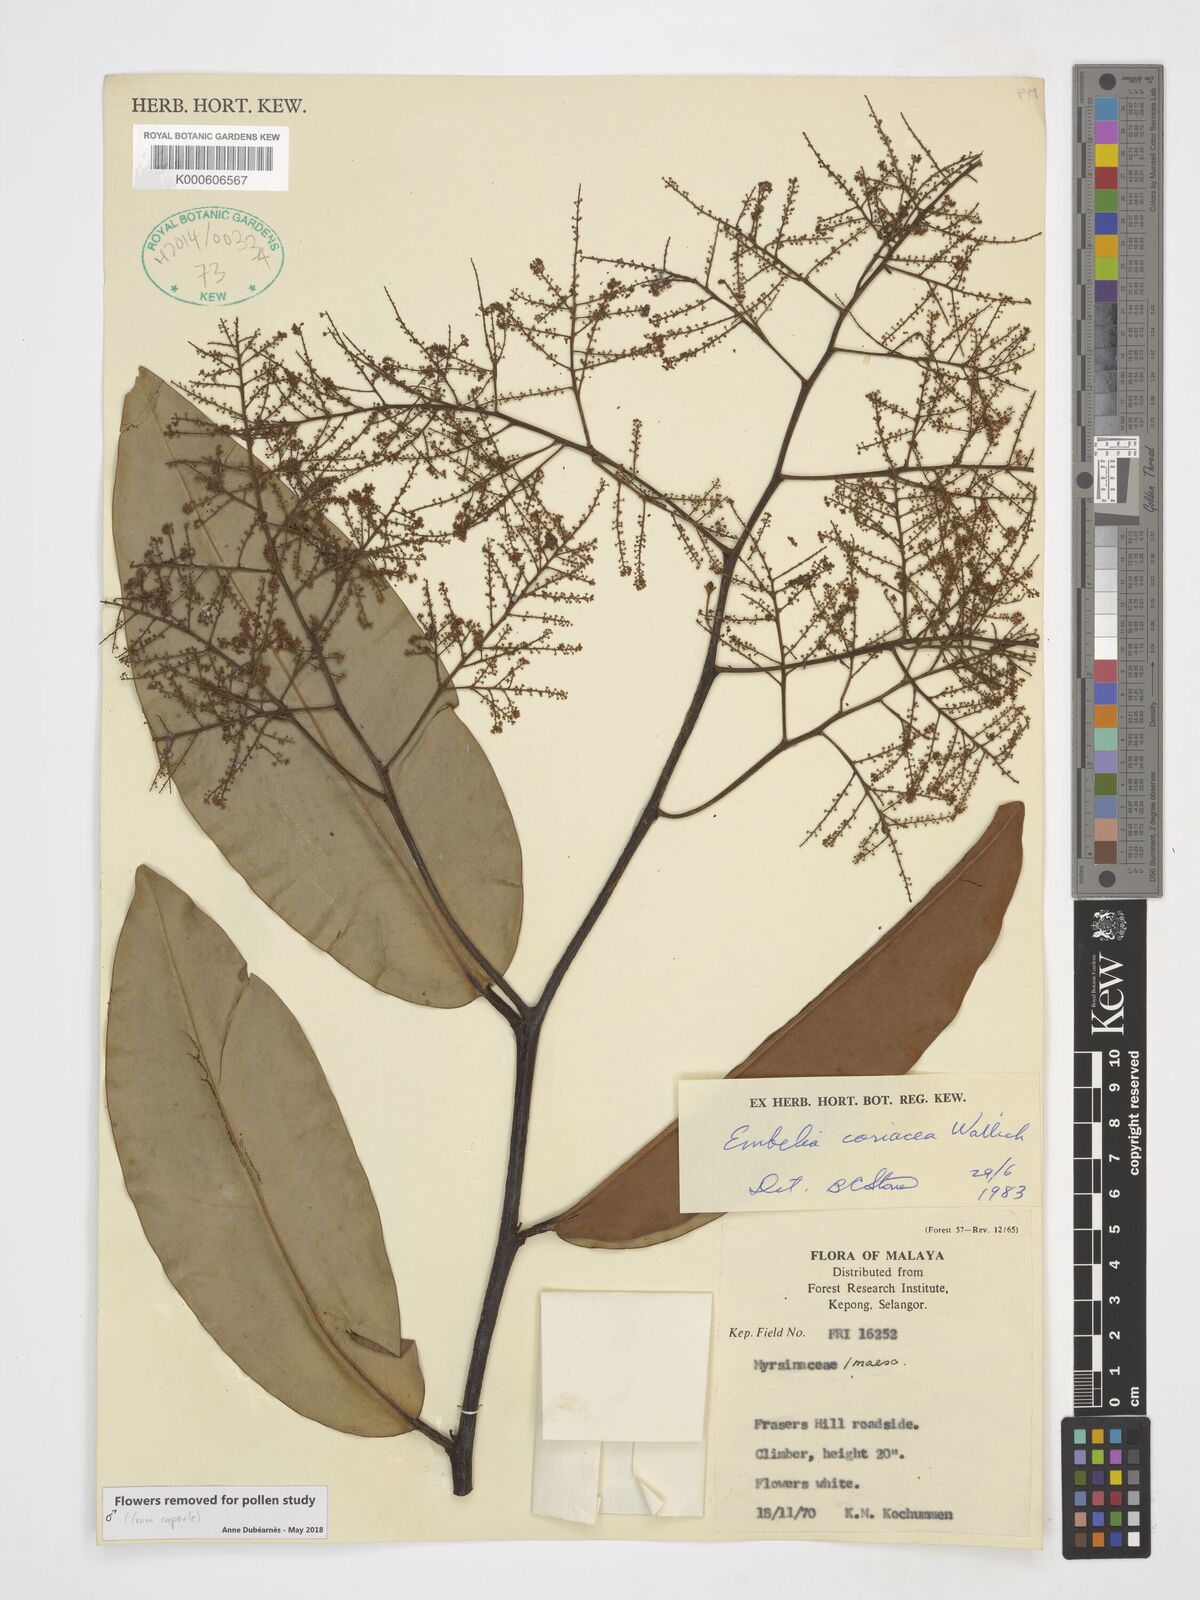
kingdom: Plantae
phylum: Tracheophyta
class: Magnoliopsida
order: Ericales
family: Primulaceae
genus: Embelia
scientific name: Embelia coriacea
